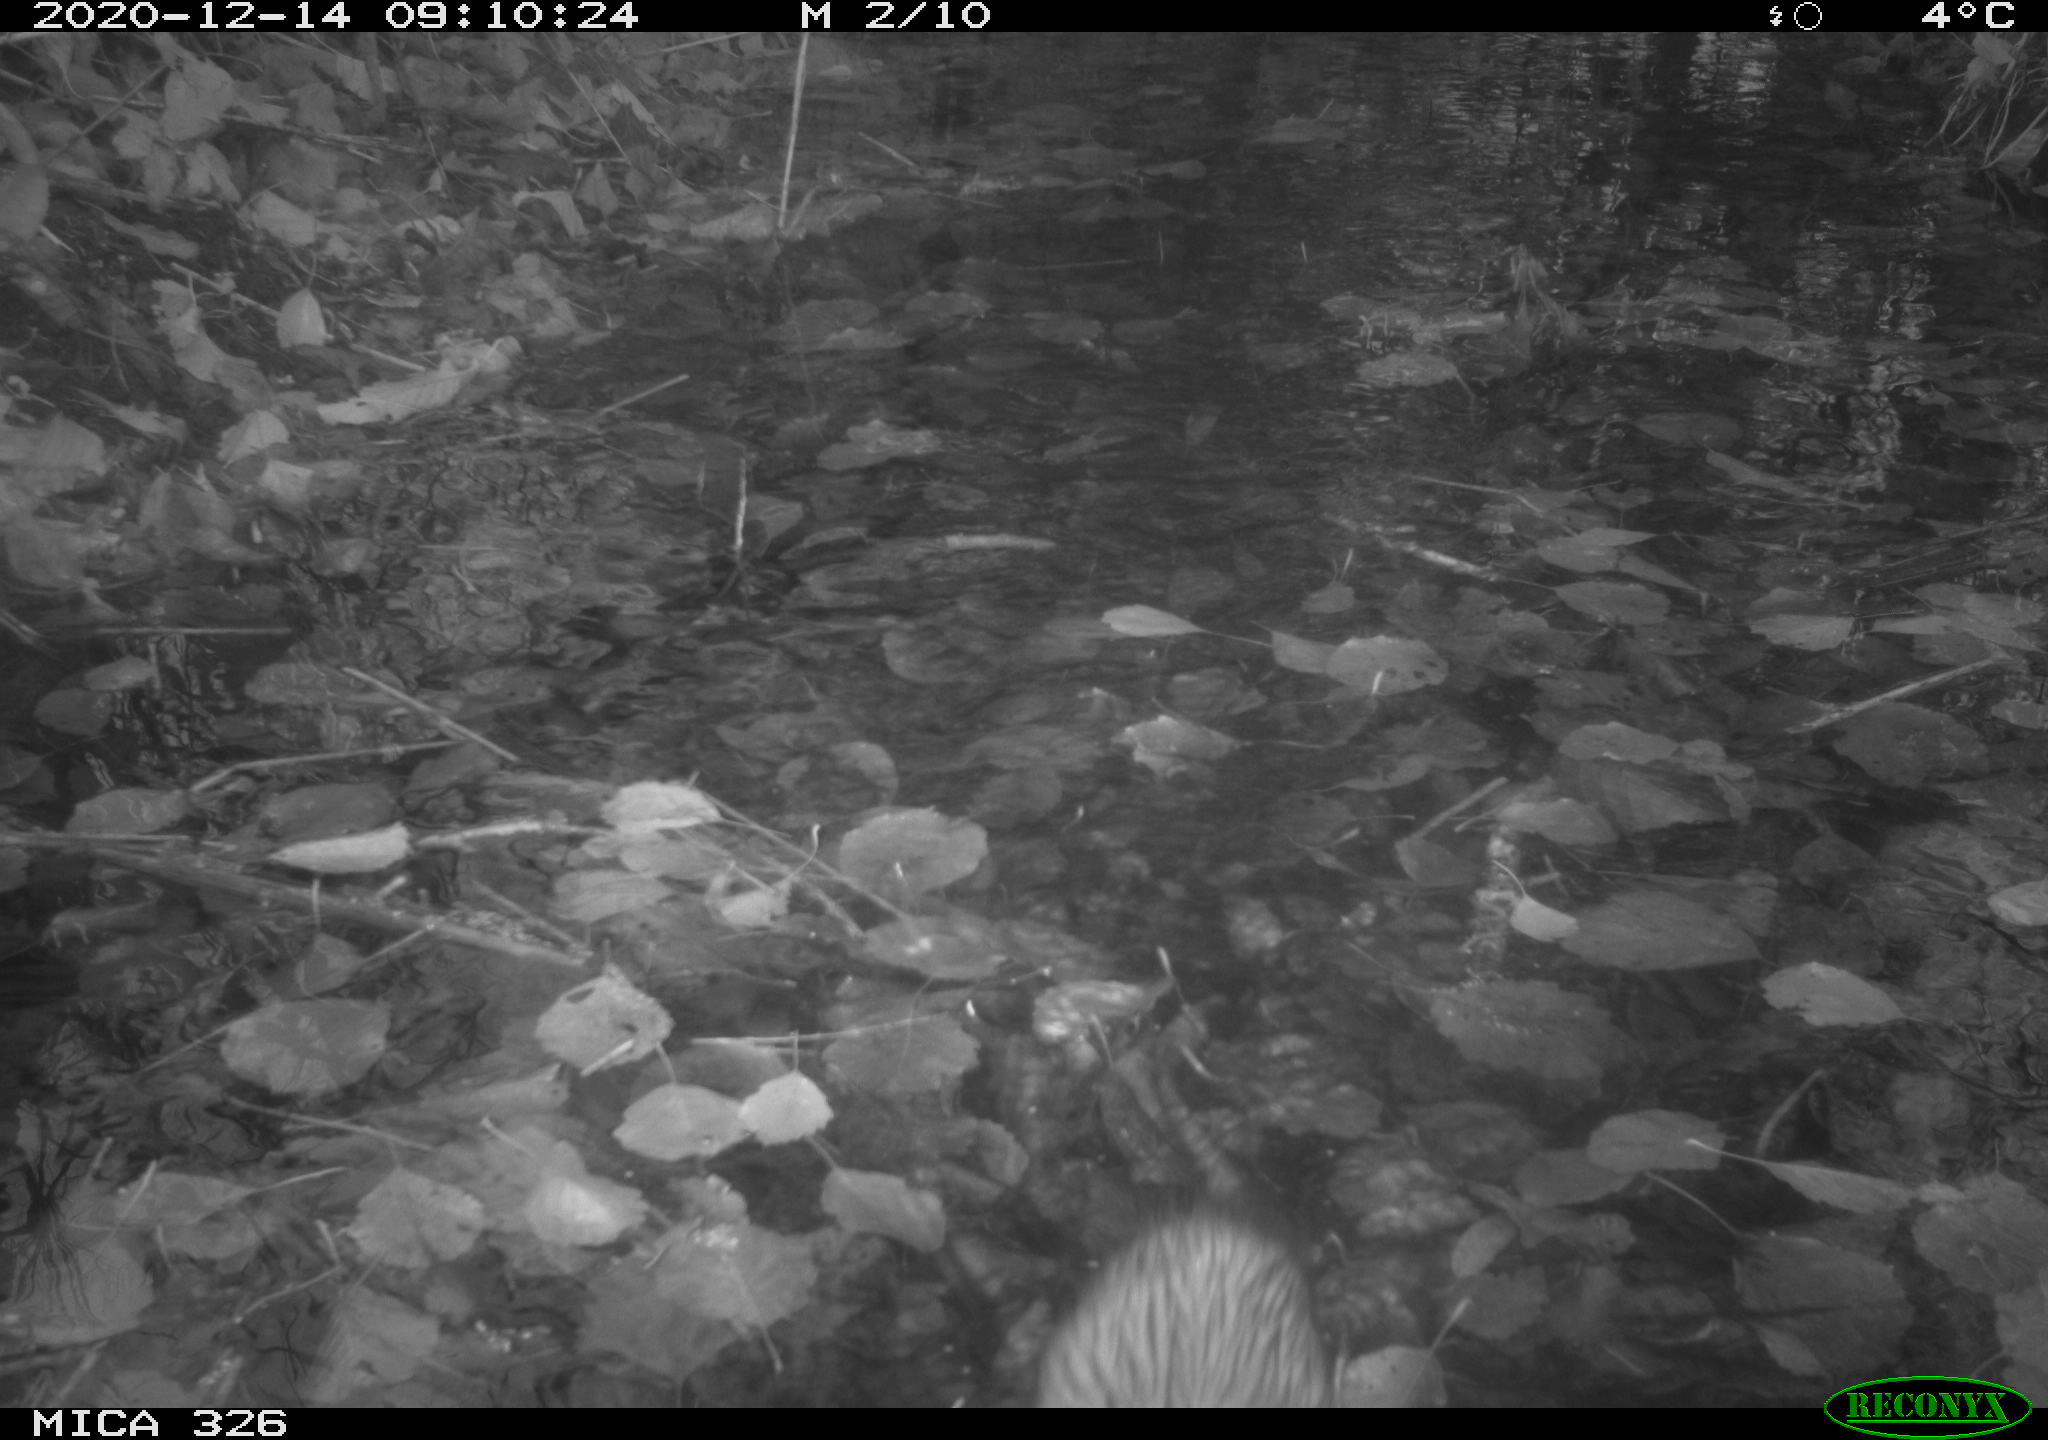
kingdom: Animalia
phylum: Chordata
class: Mammalia
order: Rodentia
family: Cricetidae
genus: Ondatra
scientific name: Ondatra zibethicus
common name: Muskrat
